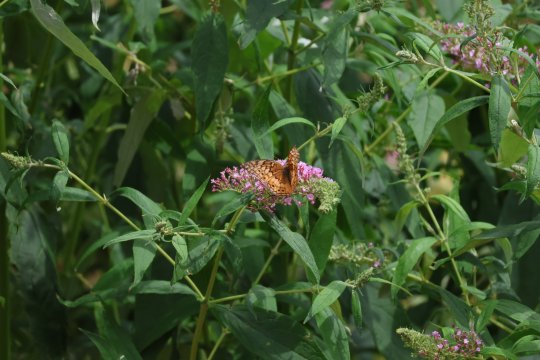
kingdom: Animalia
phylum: Arthropoda
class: Insecta
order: Lepidoptera
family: Nymphalidae
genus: Euptoieta
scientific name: Euptoieta claudia
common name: Variegated Fritillary
